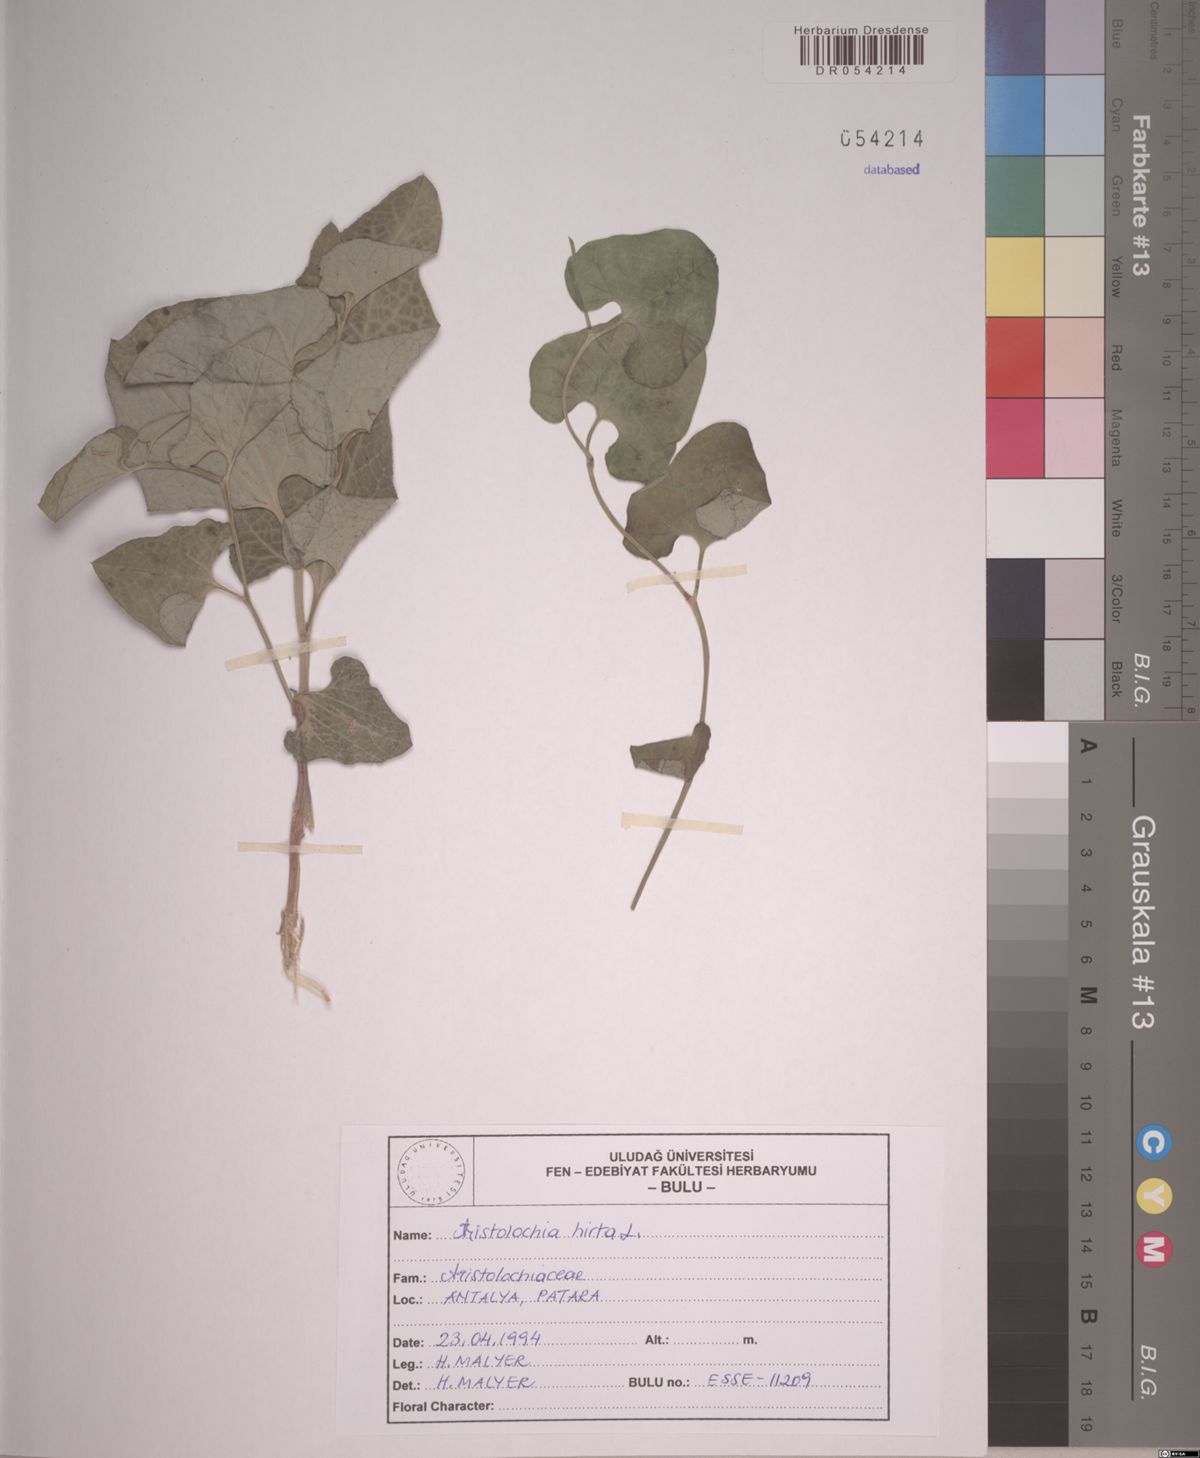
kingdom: Plantae
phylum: Tracheophyta
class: Magnoliopsida
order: Piperales
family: Aristolochiaceae
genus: Aristolochia
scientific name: Aristolochia hirta
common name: Breckland birthwort
